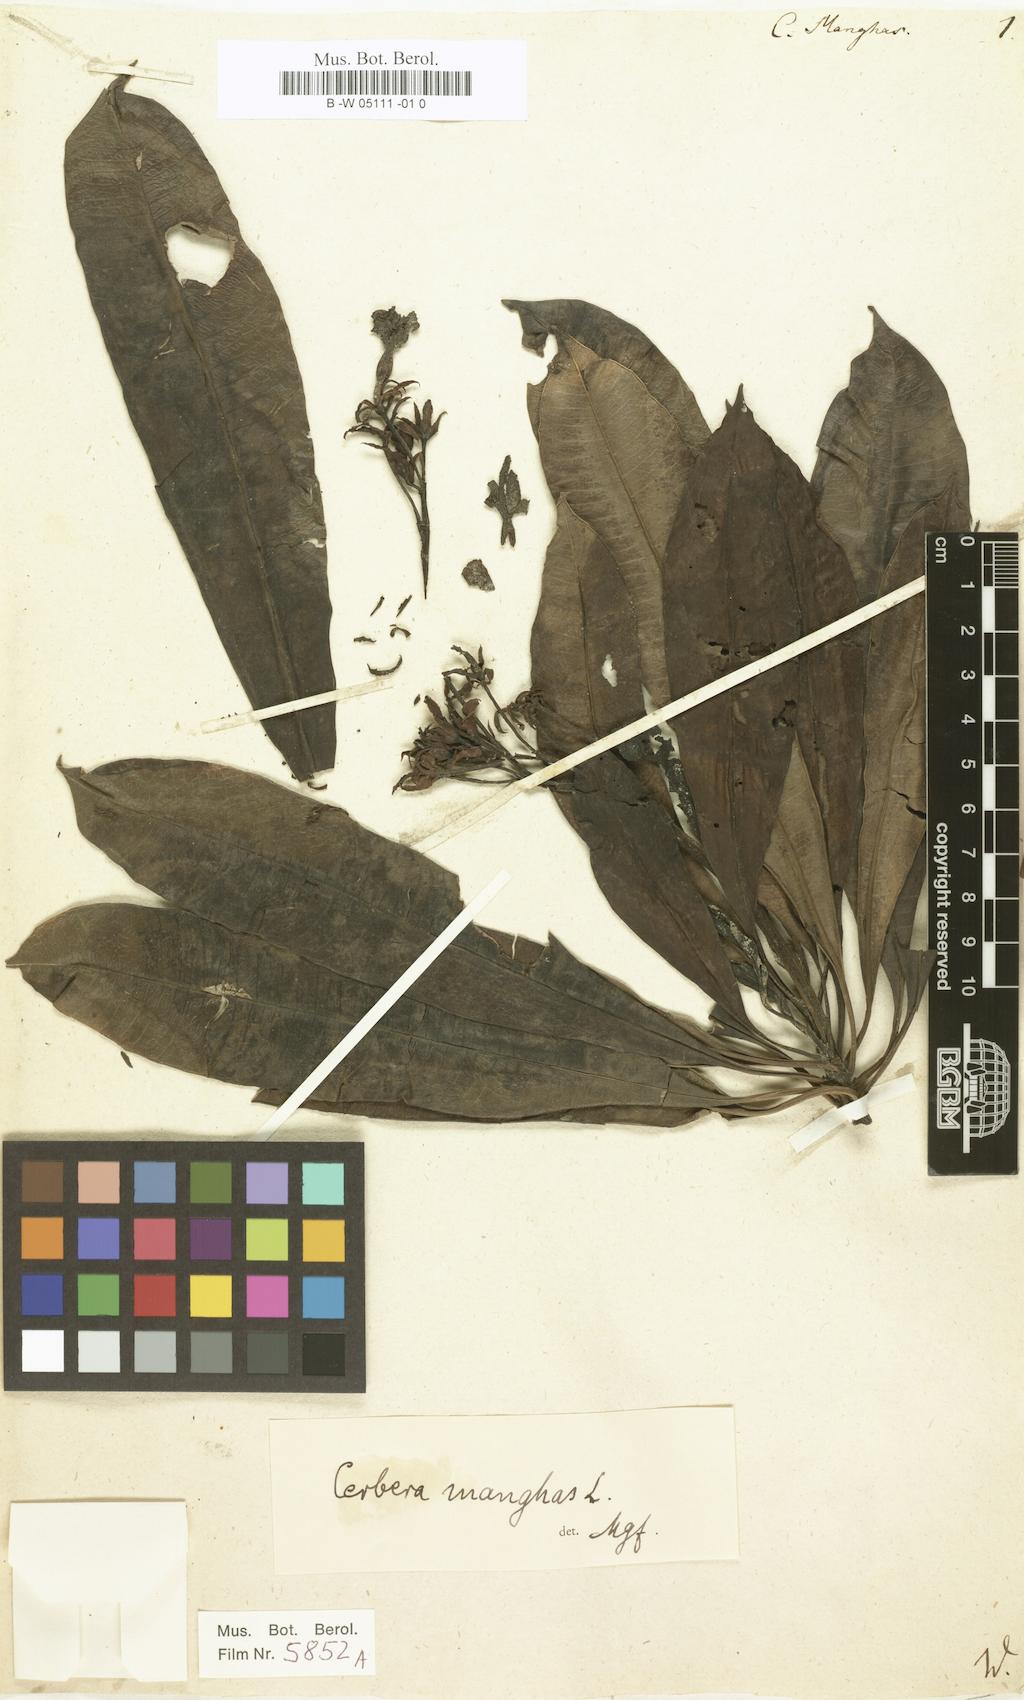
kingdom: Plantae
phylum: Tracheophyta
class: Magnoliopsida
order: Gentianales
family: Apocynaceae
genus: Cerbera
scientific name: Cerbera manghas
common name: Reva
